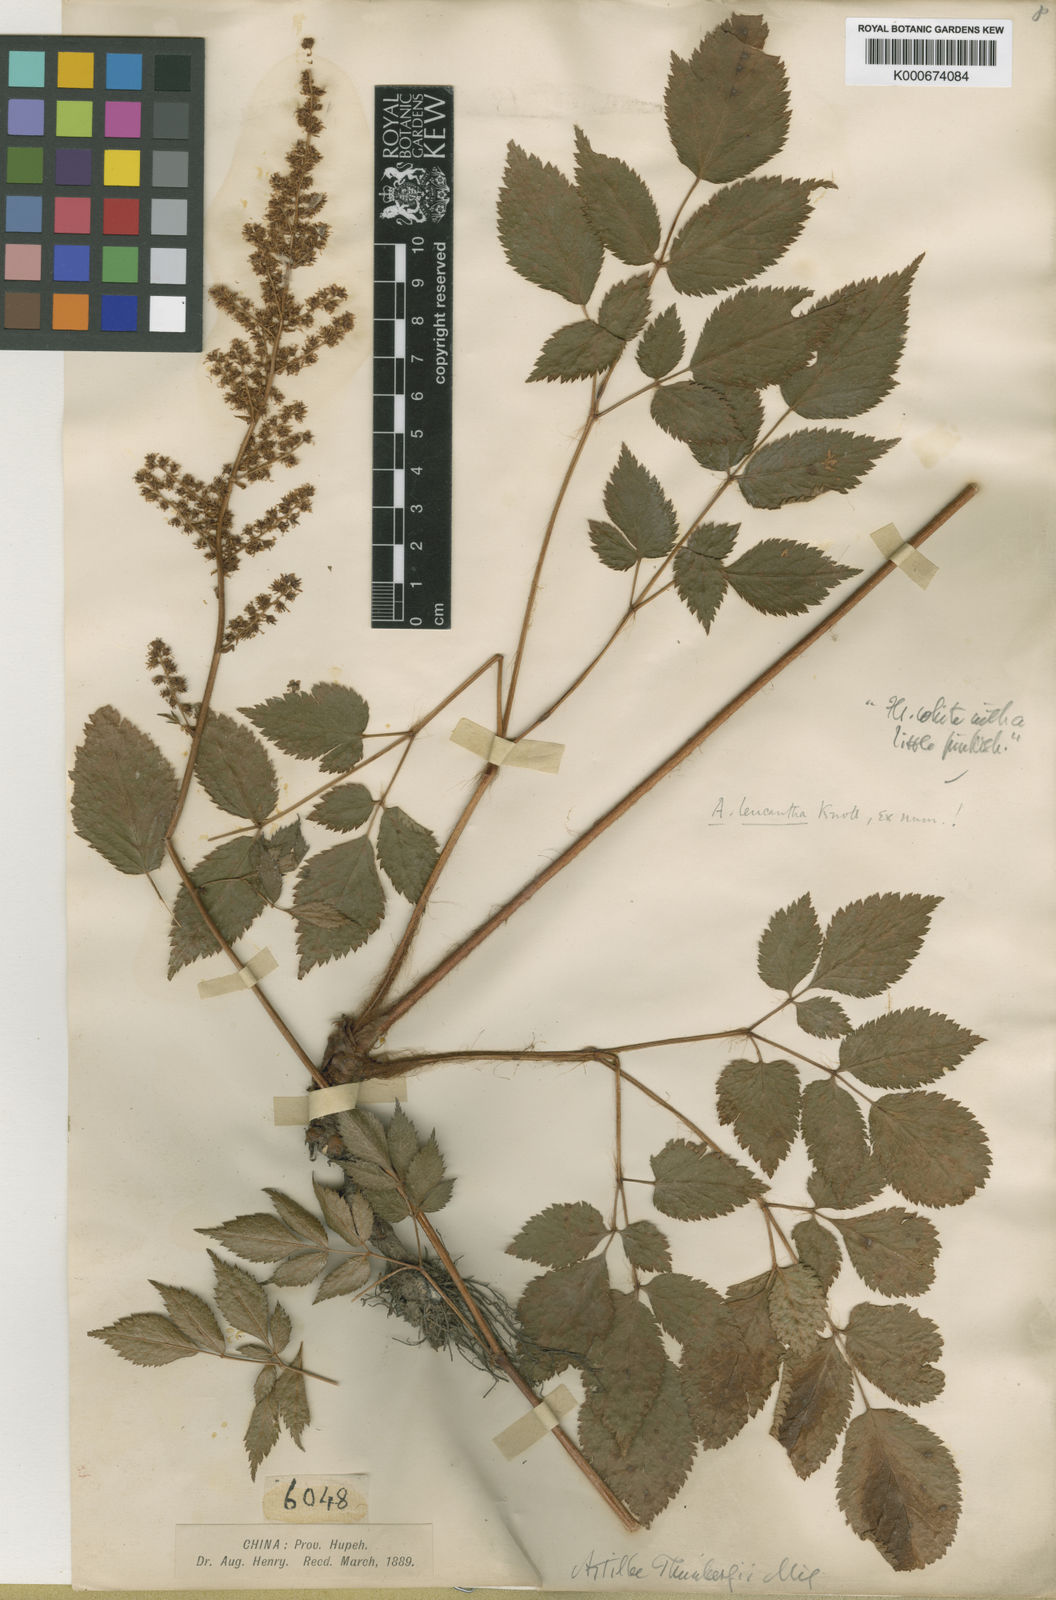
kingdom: Plantae
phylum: Tracheophyta
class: Magnoliopsida
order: Saxifragales
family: Saxifragaceae
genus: Astilbe
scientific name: Astilbe grandis
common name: Korean astilbe
